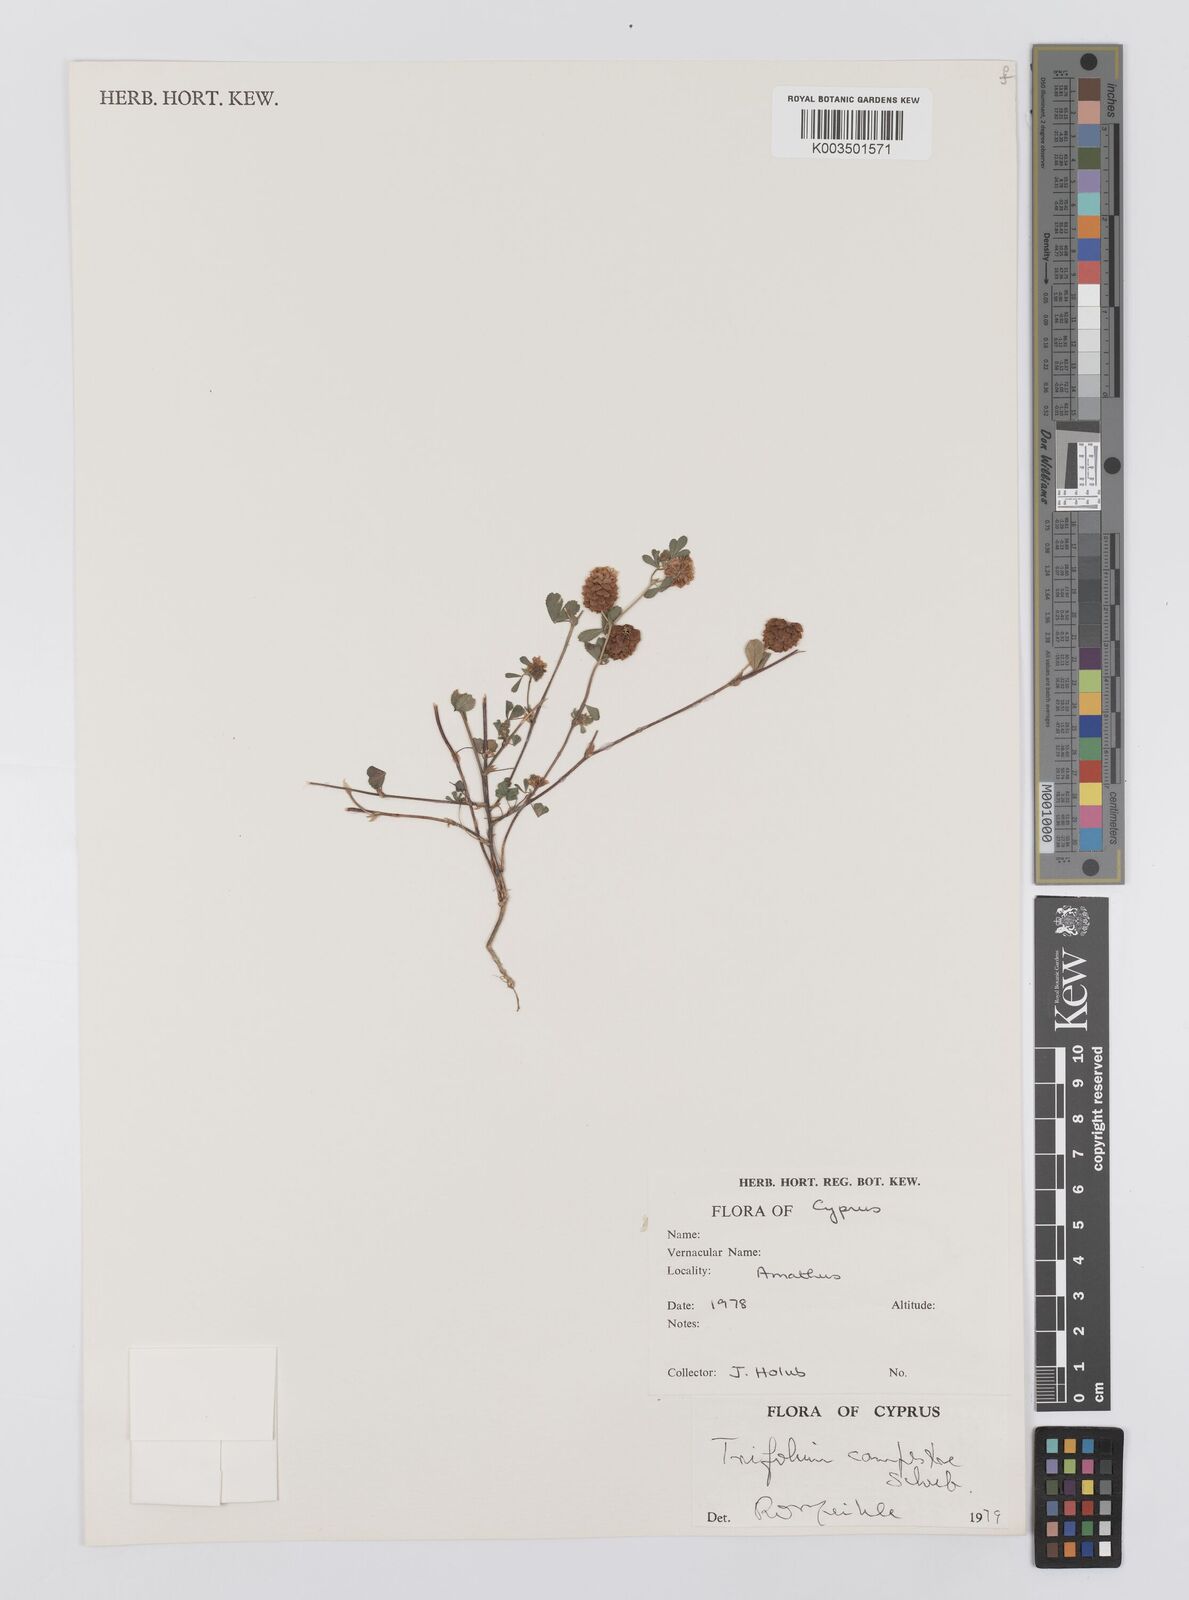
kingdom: Plantae
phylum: Tracheophyta
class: Magnoliopsida
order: Fabales
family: Fabaceae
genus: Trifolium
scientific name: Trifolium campestre
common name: Field clover
